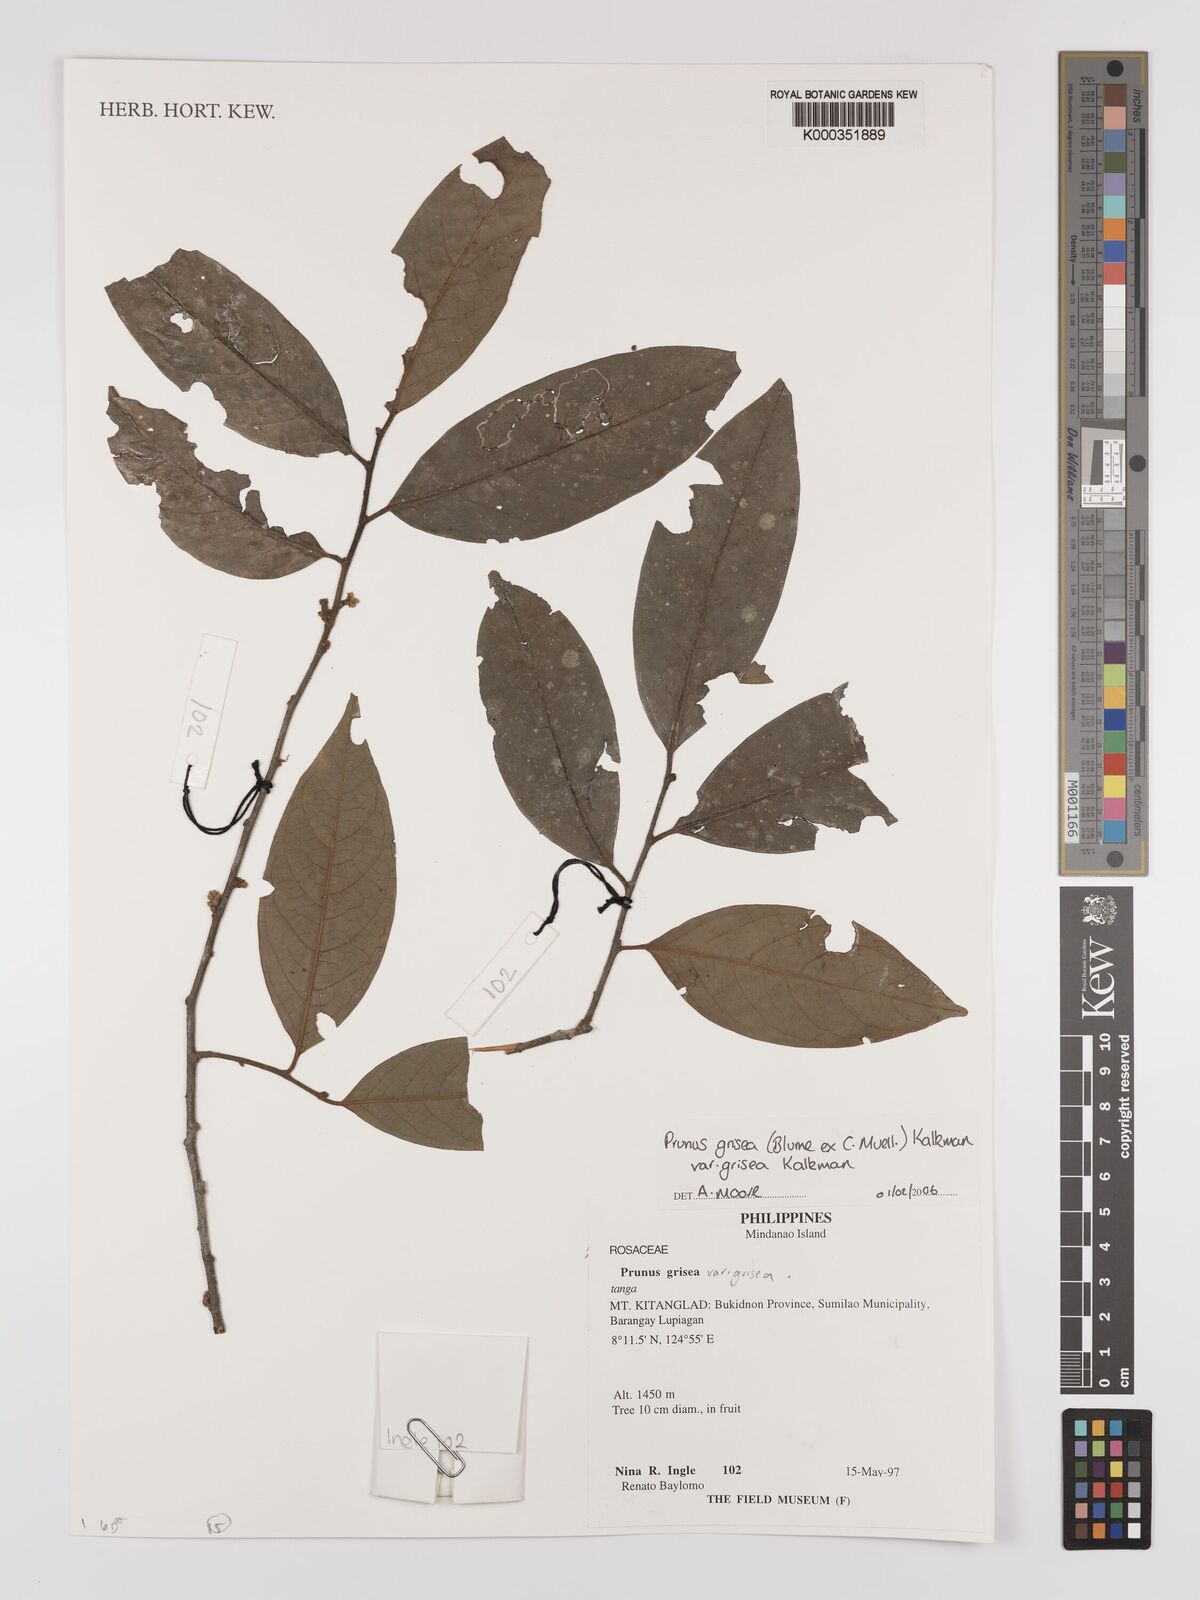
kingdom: Plantae
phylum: Tracheophyta
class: Magnoliopsida
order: Rosales
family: Rosaceae
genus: Prunus
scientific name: Prunus grisea
